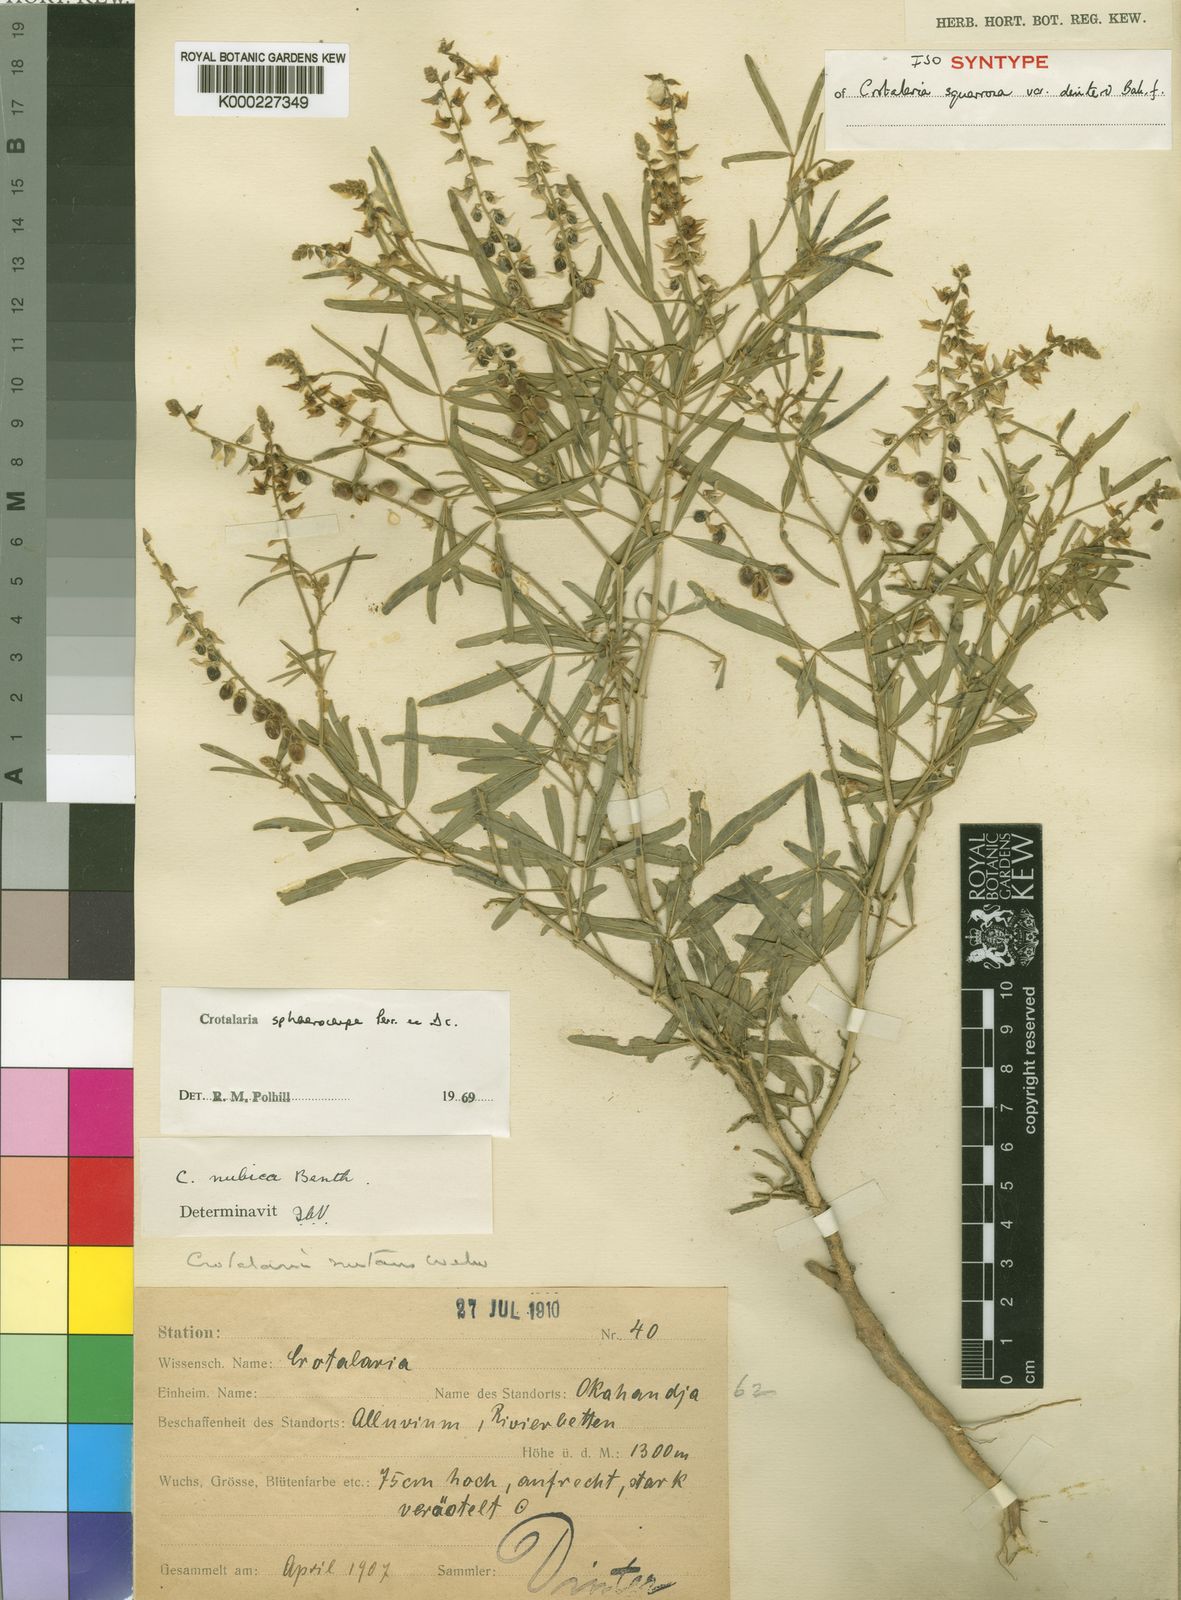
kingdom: Plantae
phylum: Tracheophyta
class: Magnoliopsida
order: Fabales
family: Fabaceae
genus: Crotalaria
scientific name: Crotalaria sphaerocarpa
